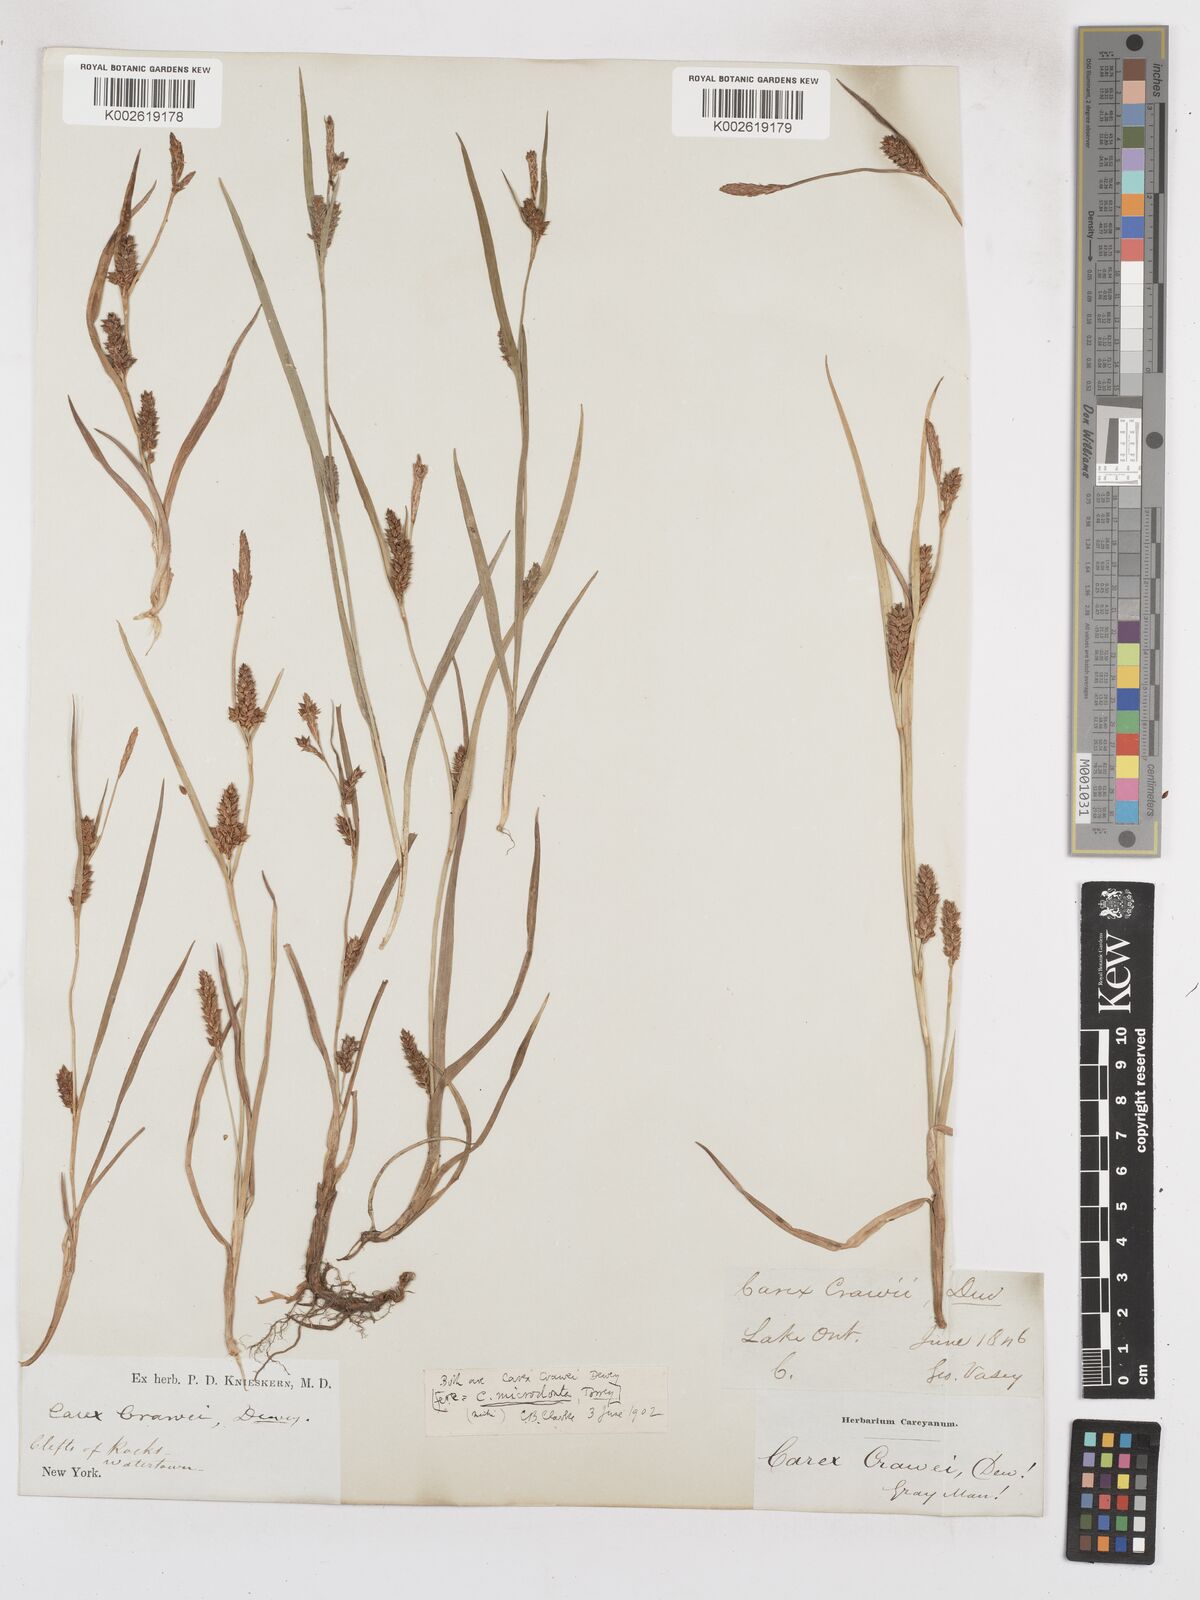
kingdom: Plantae
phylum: Tracheophyta
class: Liliopsida
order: Poales
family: Cyperaceae
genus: Carex
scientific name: Carex crawei
